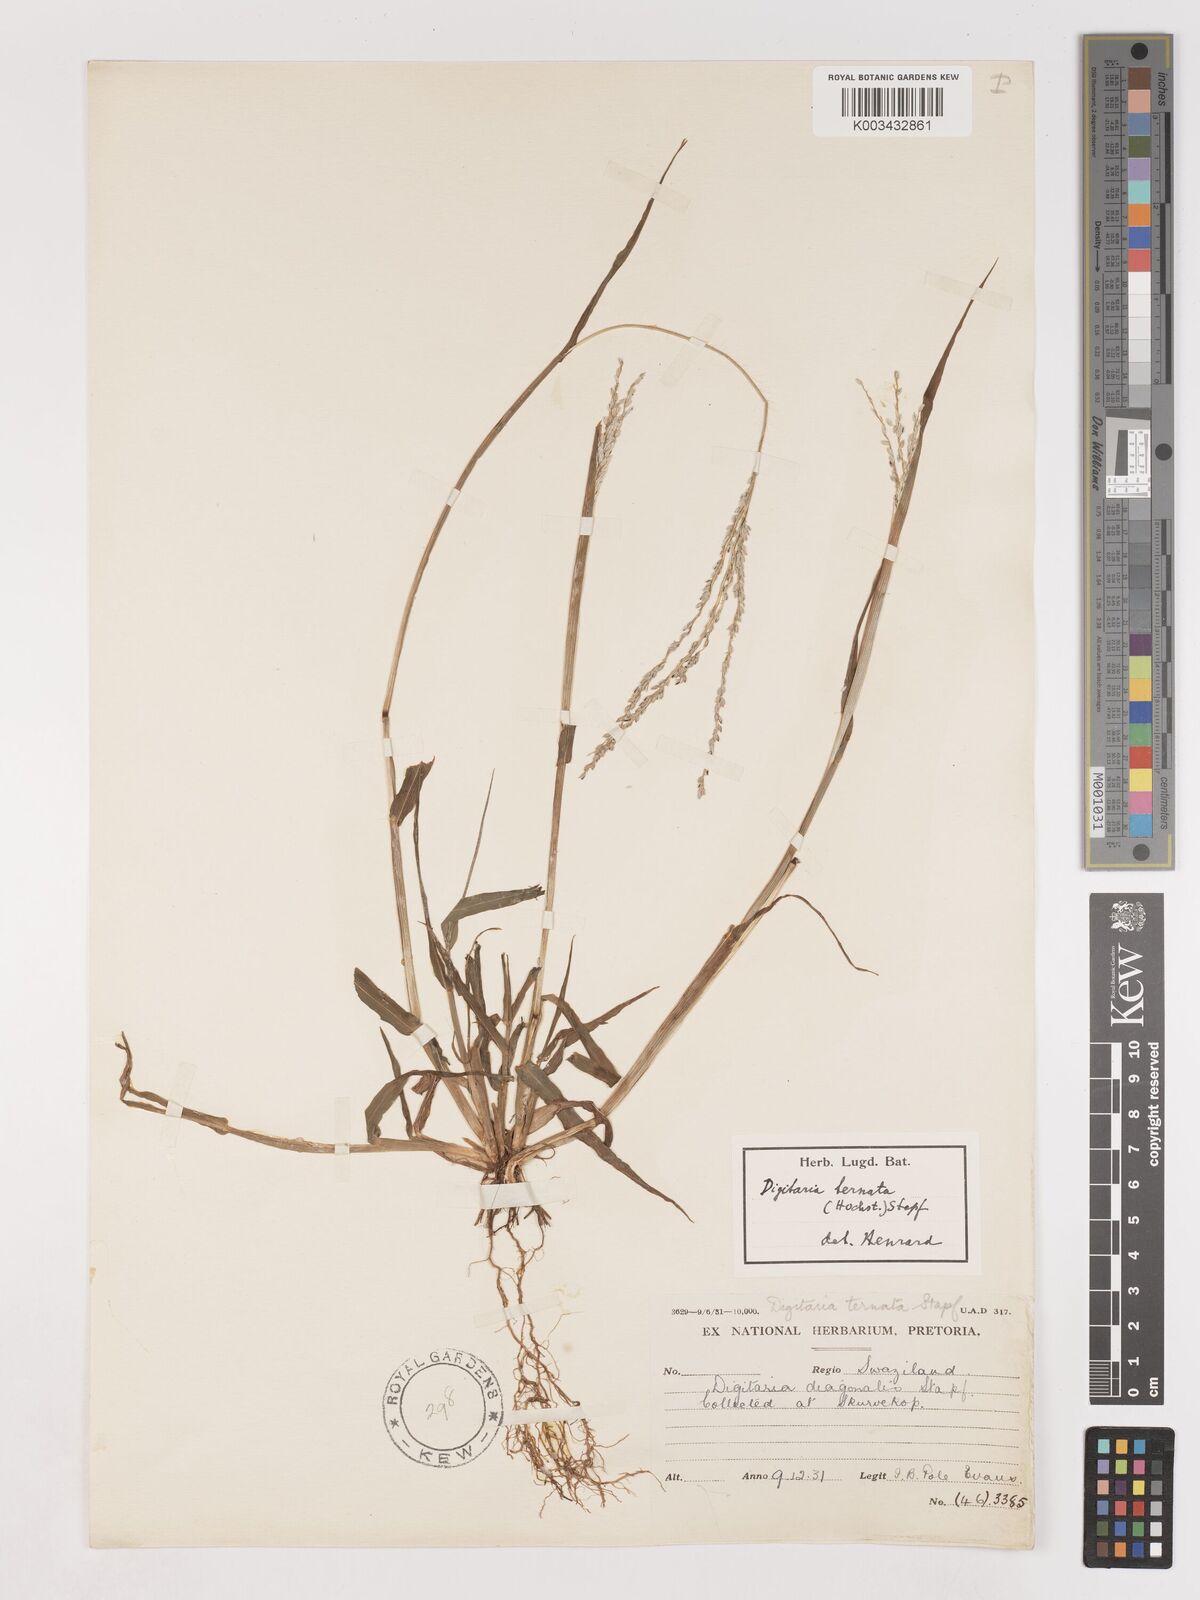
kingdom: Plantae
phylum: Tracheophyta
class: Liliopsida
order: Poales
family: Poaceae
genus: Digitaria
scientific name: Digitaria ternata
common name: Blackseed crabgrass
